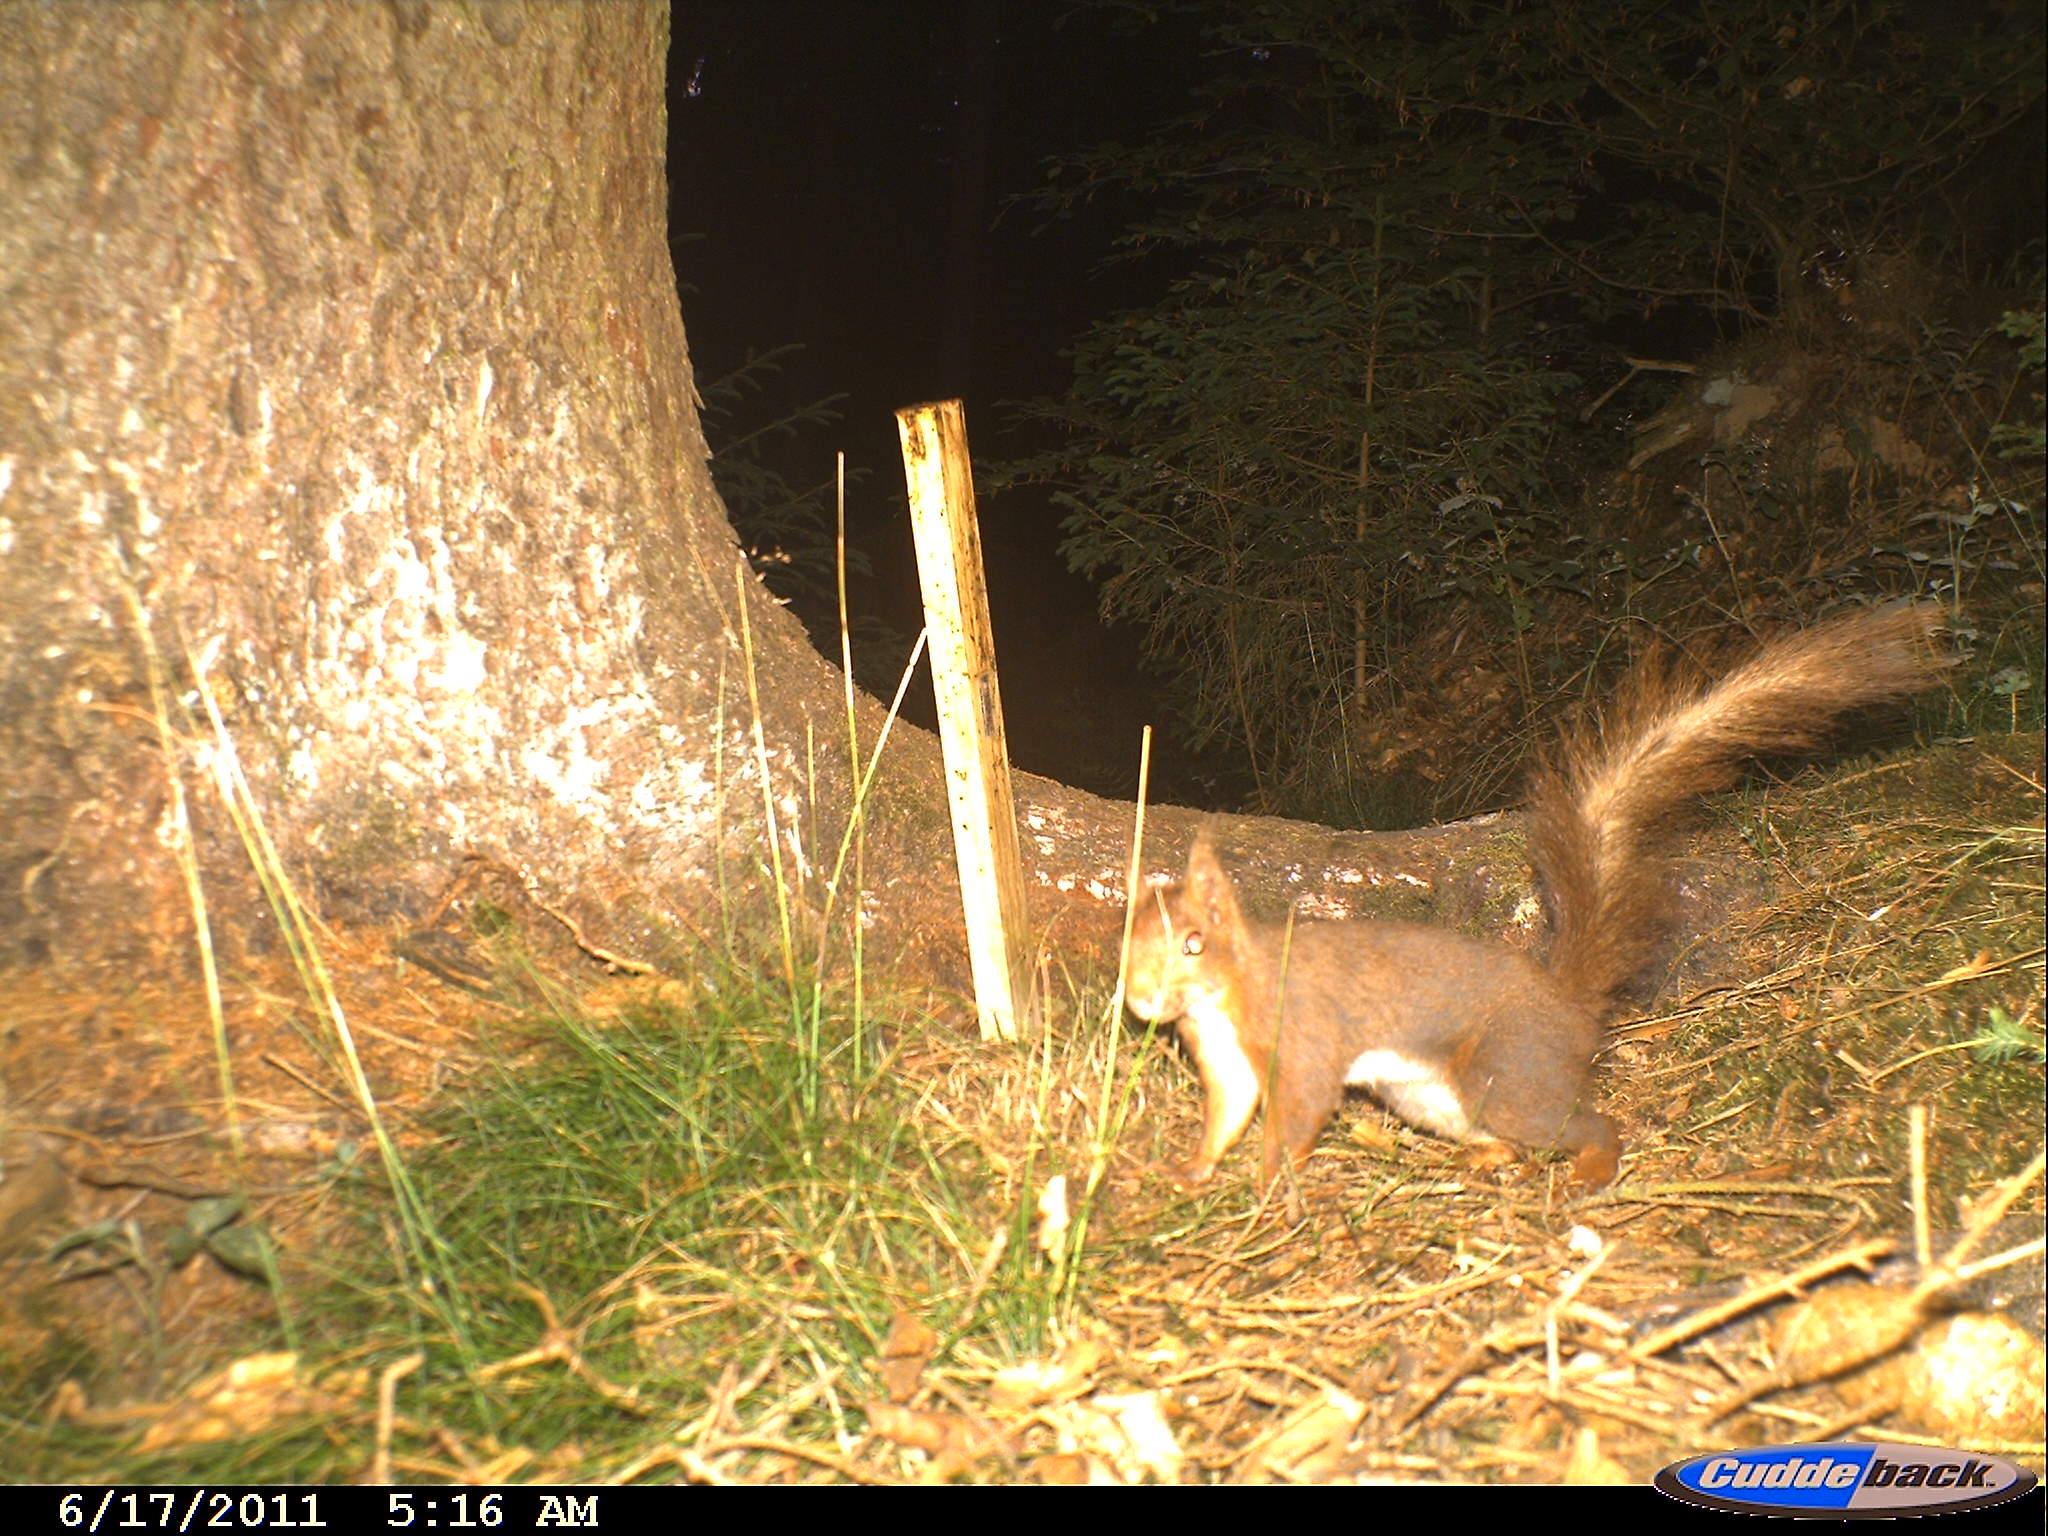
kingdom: Animalia
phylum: Chordata
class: Mammalia
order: Rodentia
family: Sciuridae
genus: Sciurus
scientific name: Sciurus vulgaris
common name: Eurasian red squirrel
